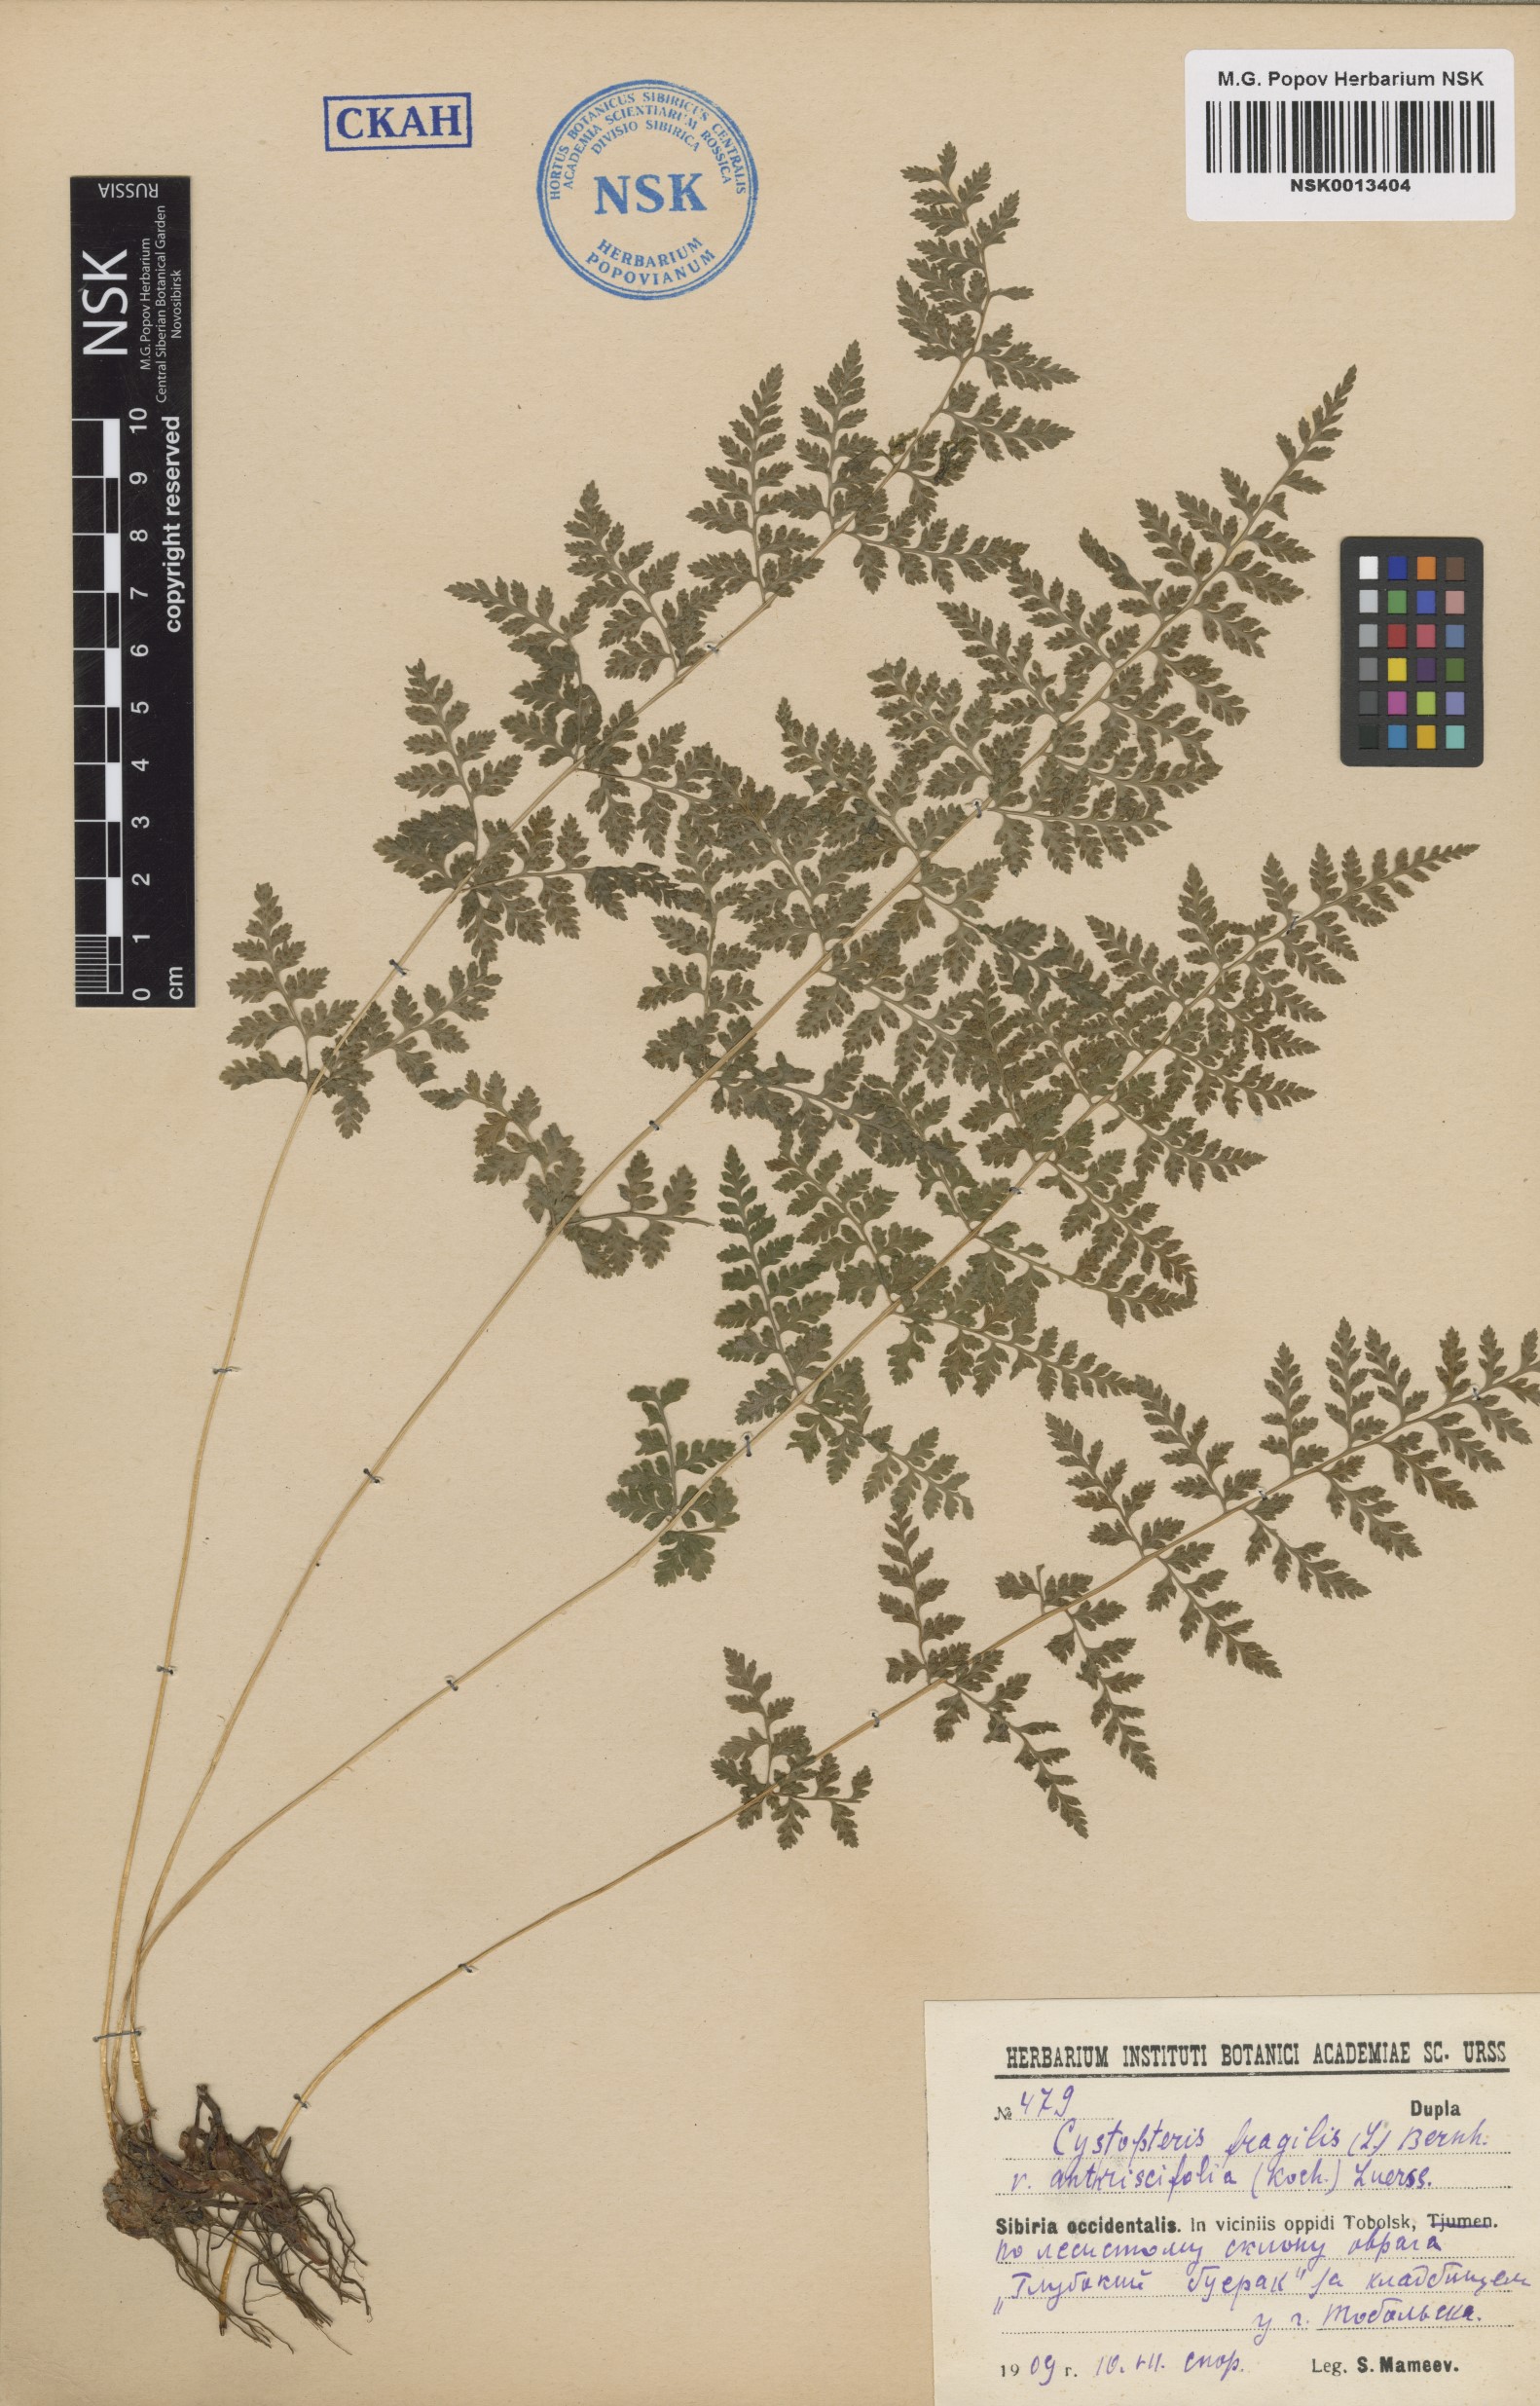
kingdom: Plantae
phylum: Tracheophyta
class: Polypodiopsida
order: Polypodiales
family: Cystopteridaceae
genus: Cystopteris
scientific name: Cystopteris fragilis
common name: Brittle bladder fern
